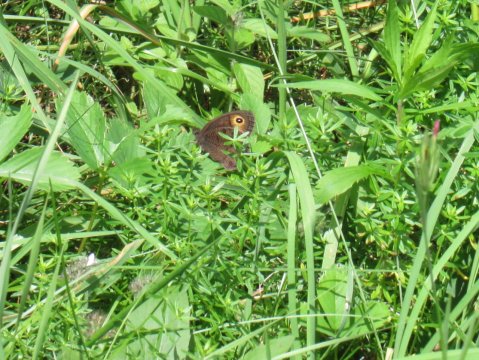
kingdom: Animalia
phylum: Arthropoda
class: Insecta
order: Lepidoptera
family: Nymphalidae
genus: Cercyonis
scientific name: Cercyonis pegala
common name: Common Wood-Nymph
